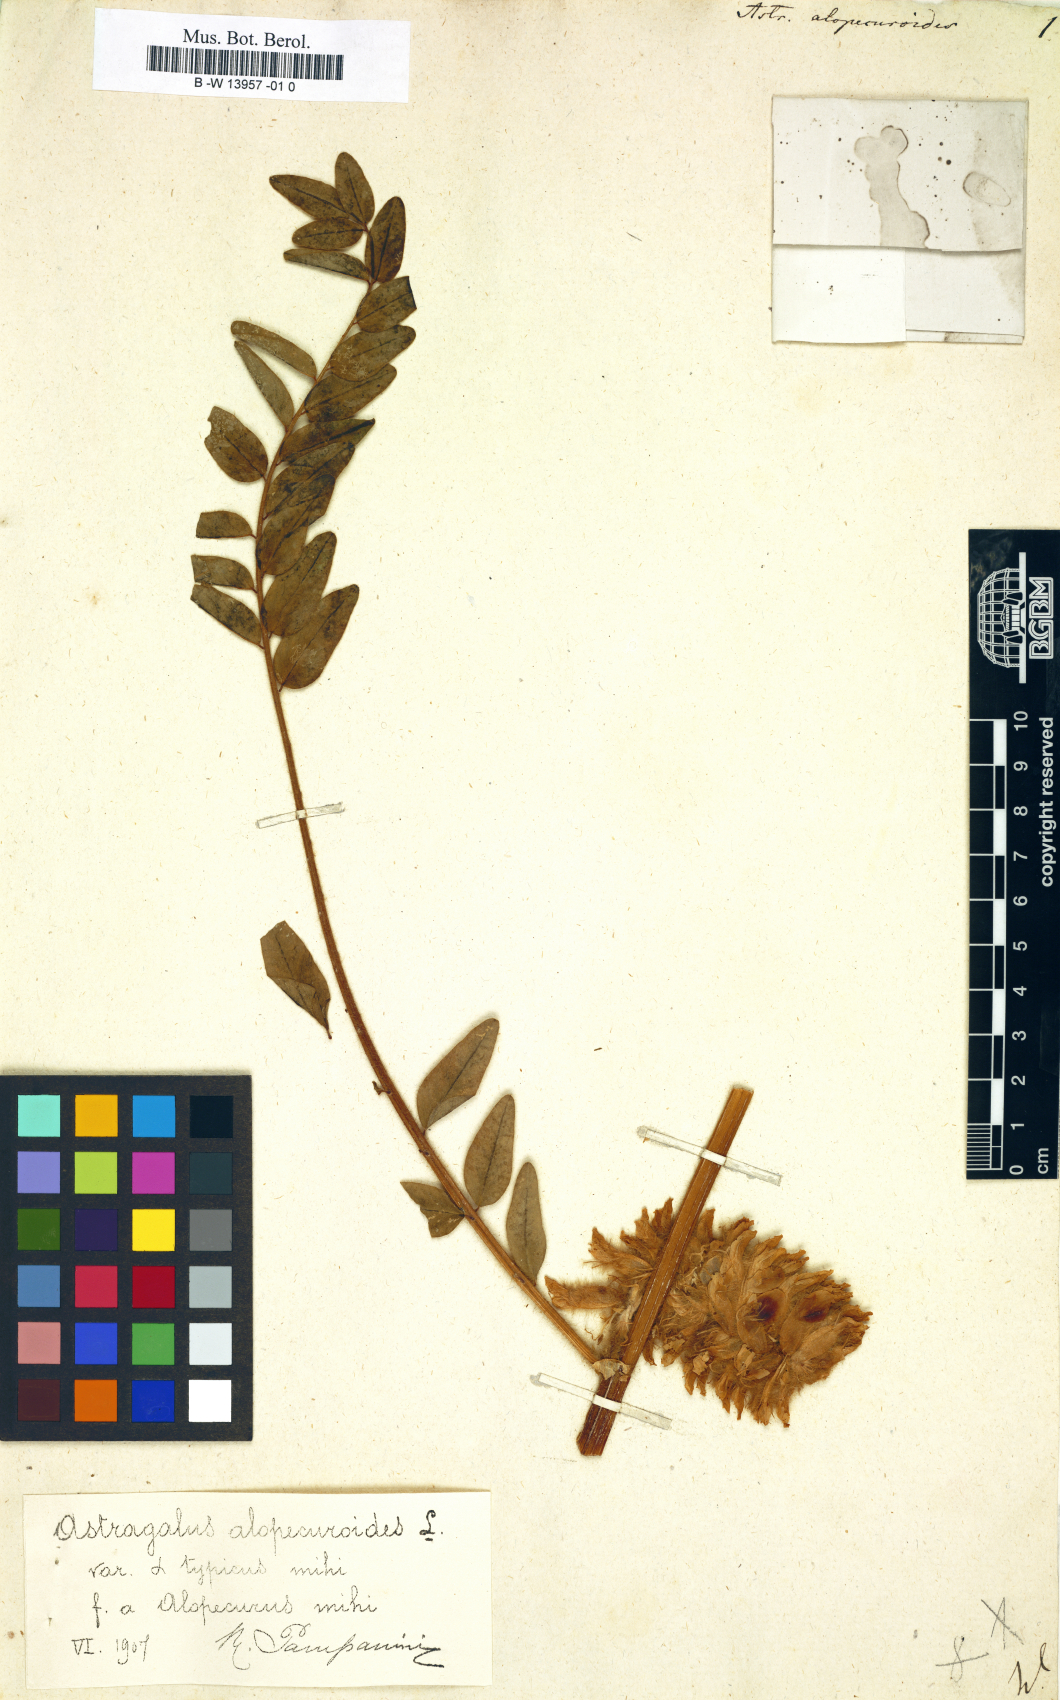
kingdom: Plantae
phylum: Tracheophyta
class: Magnoliopsida
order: Fabales
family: Fabaceae
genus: Astragalus
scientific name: Astragalus alopecuroides
